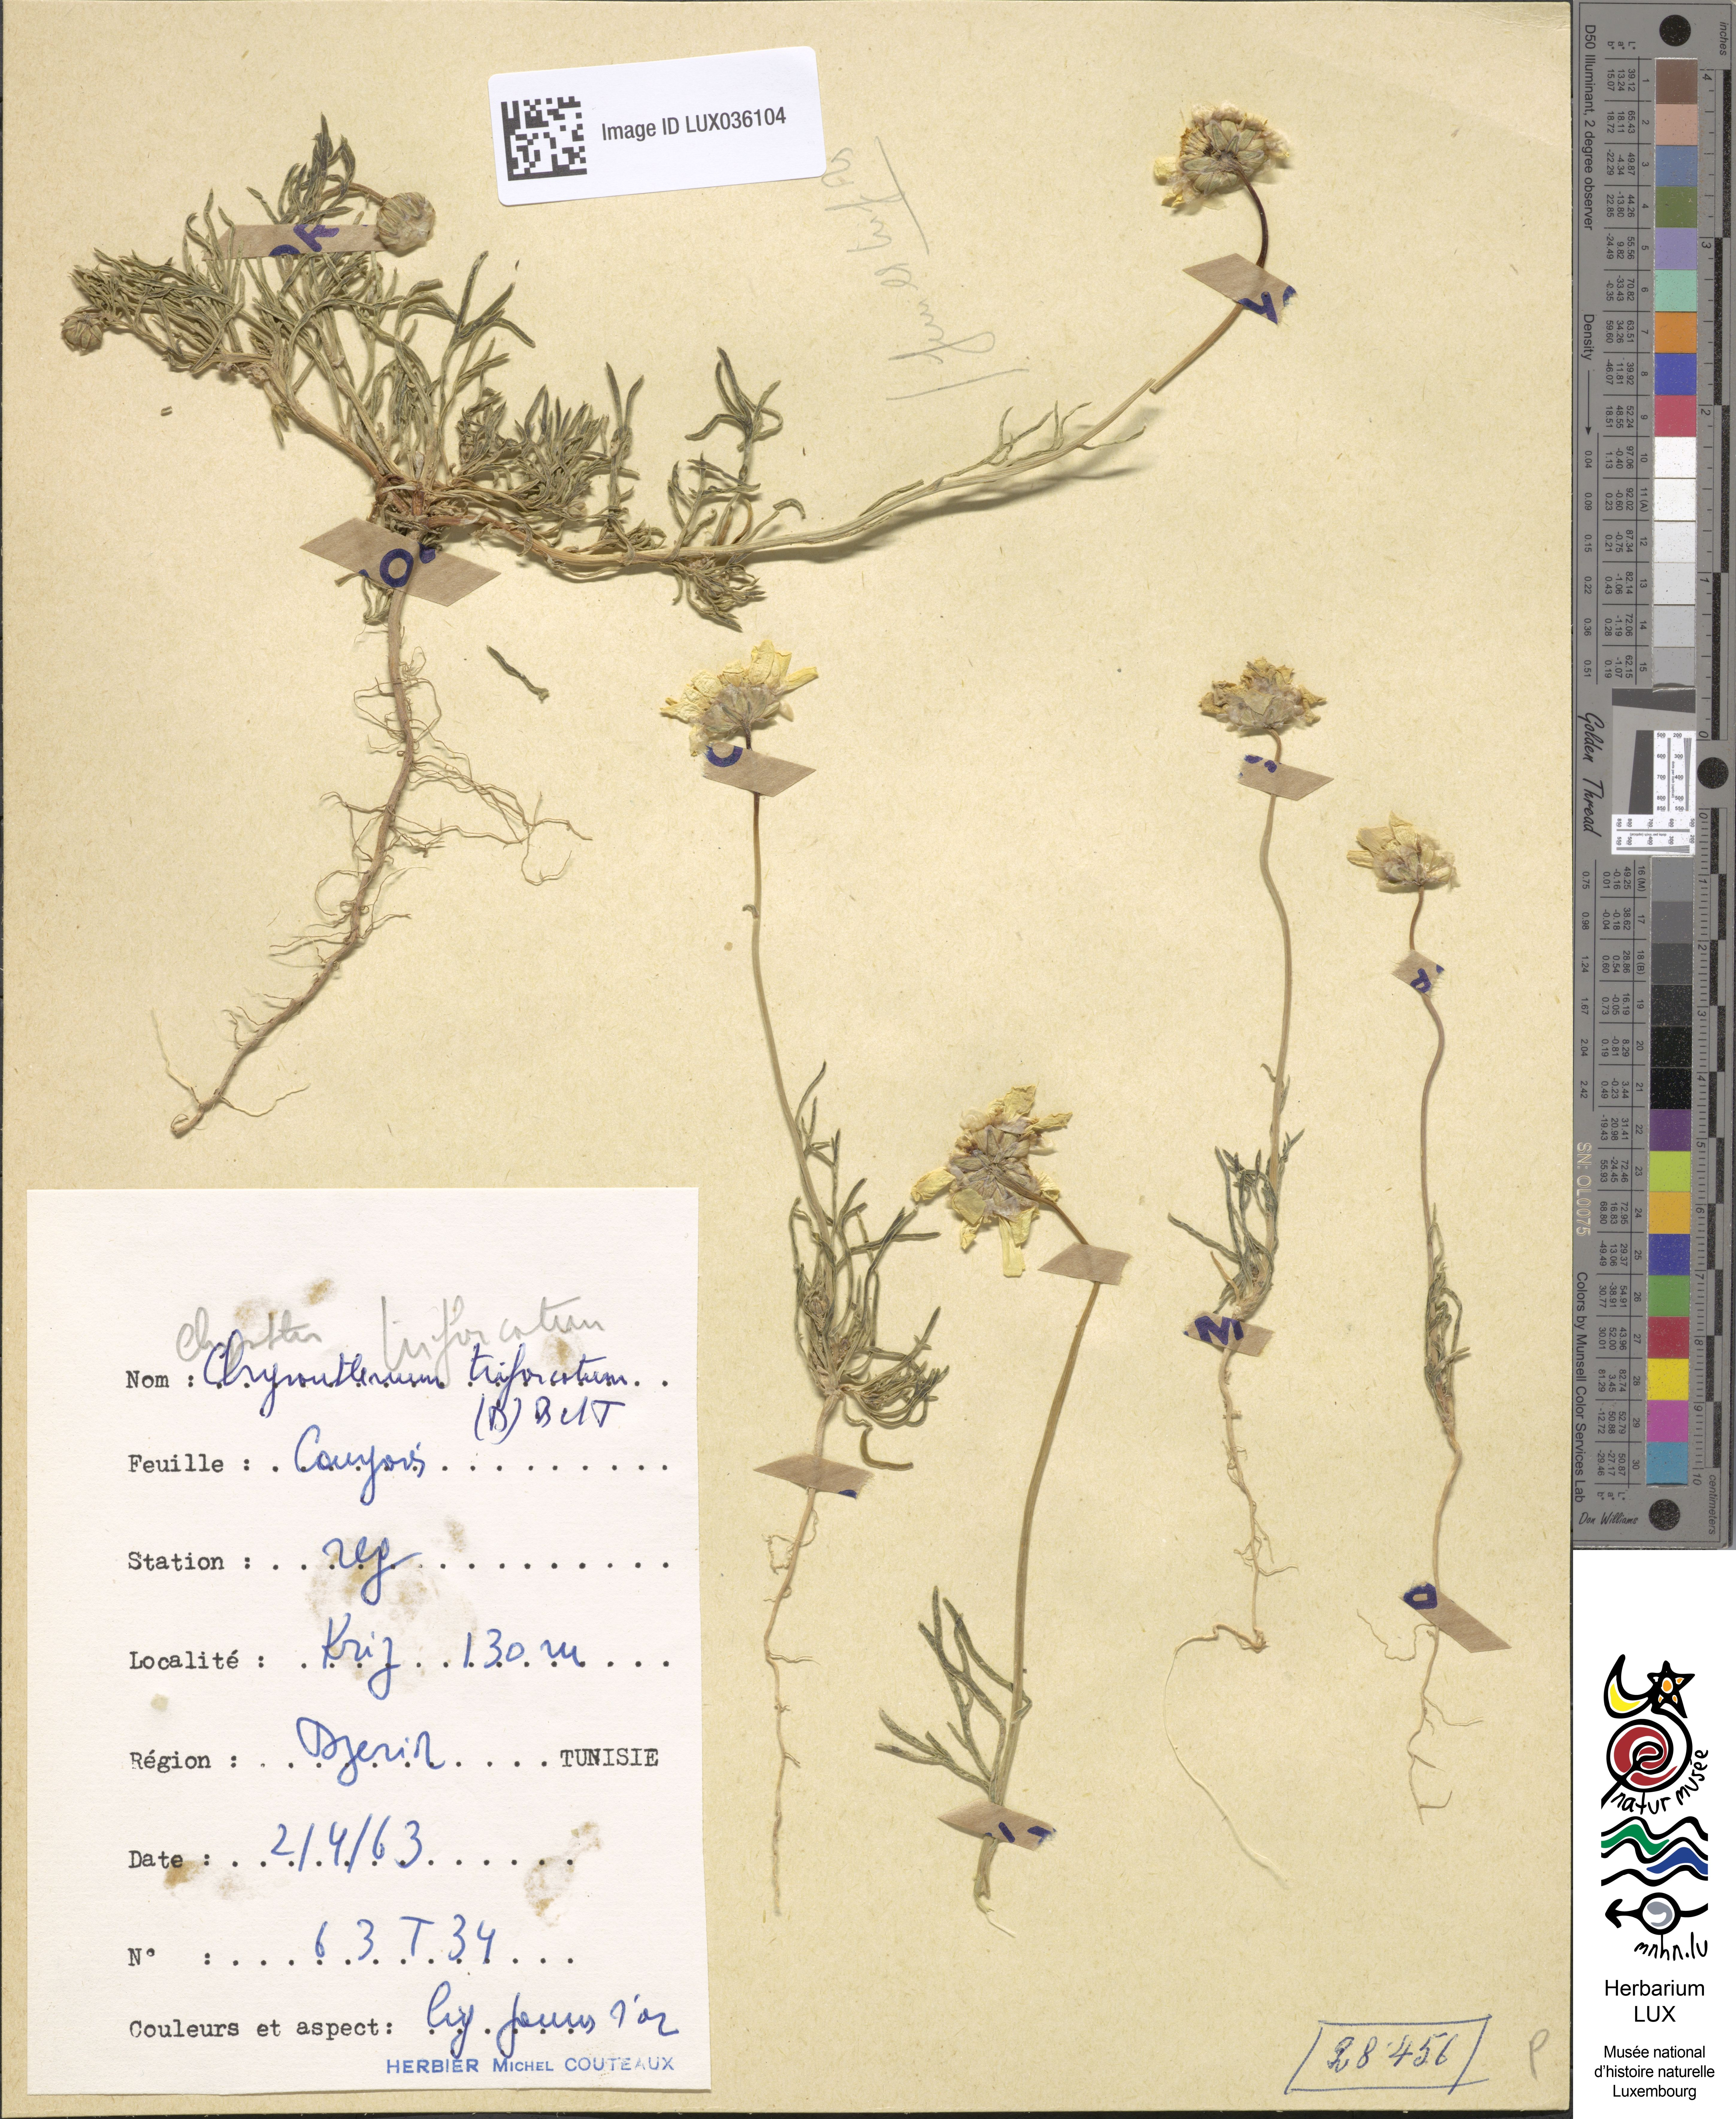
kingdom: Plantae
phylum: Tracheophyta
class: Magnoliopsida
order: Asterales
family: Asteraceae
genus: Chrysanthoglossum
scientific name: Chrysanthoglossum trifurcatum
